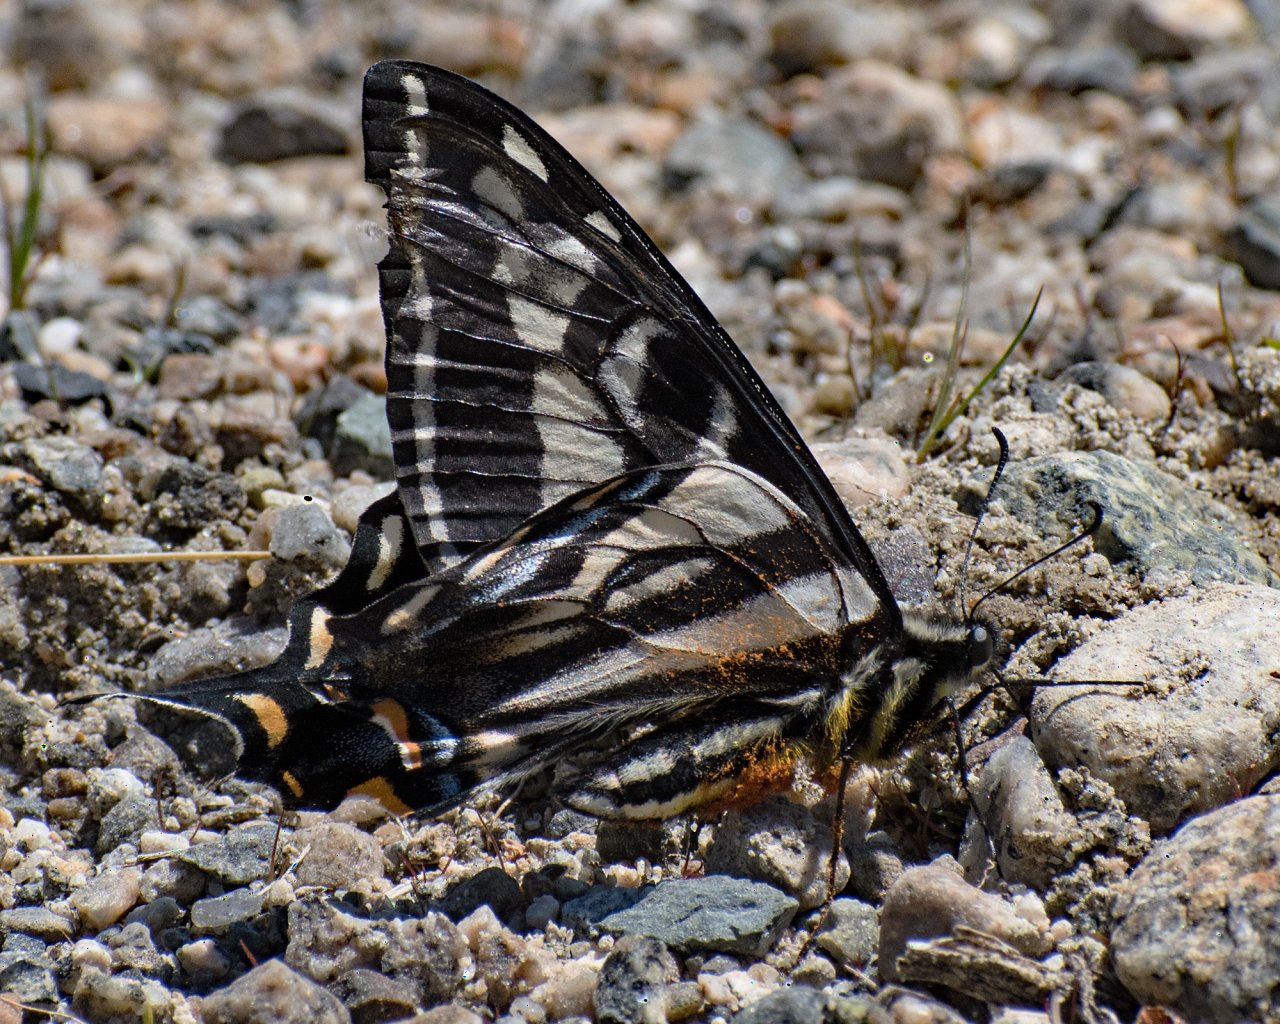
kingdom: Animalia
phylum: Arthropoda
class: Insecta
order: Lepidoptera
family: Papilionidae
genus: Pterourus
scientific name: Pterourus eurymedon
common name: Pale Swallowtail
